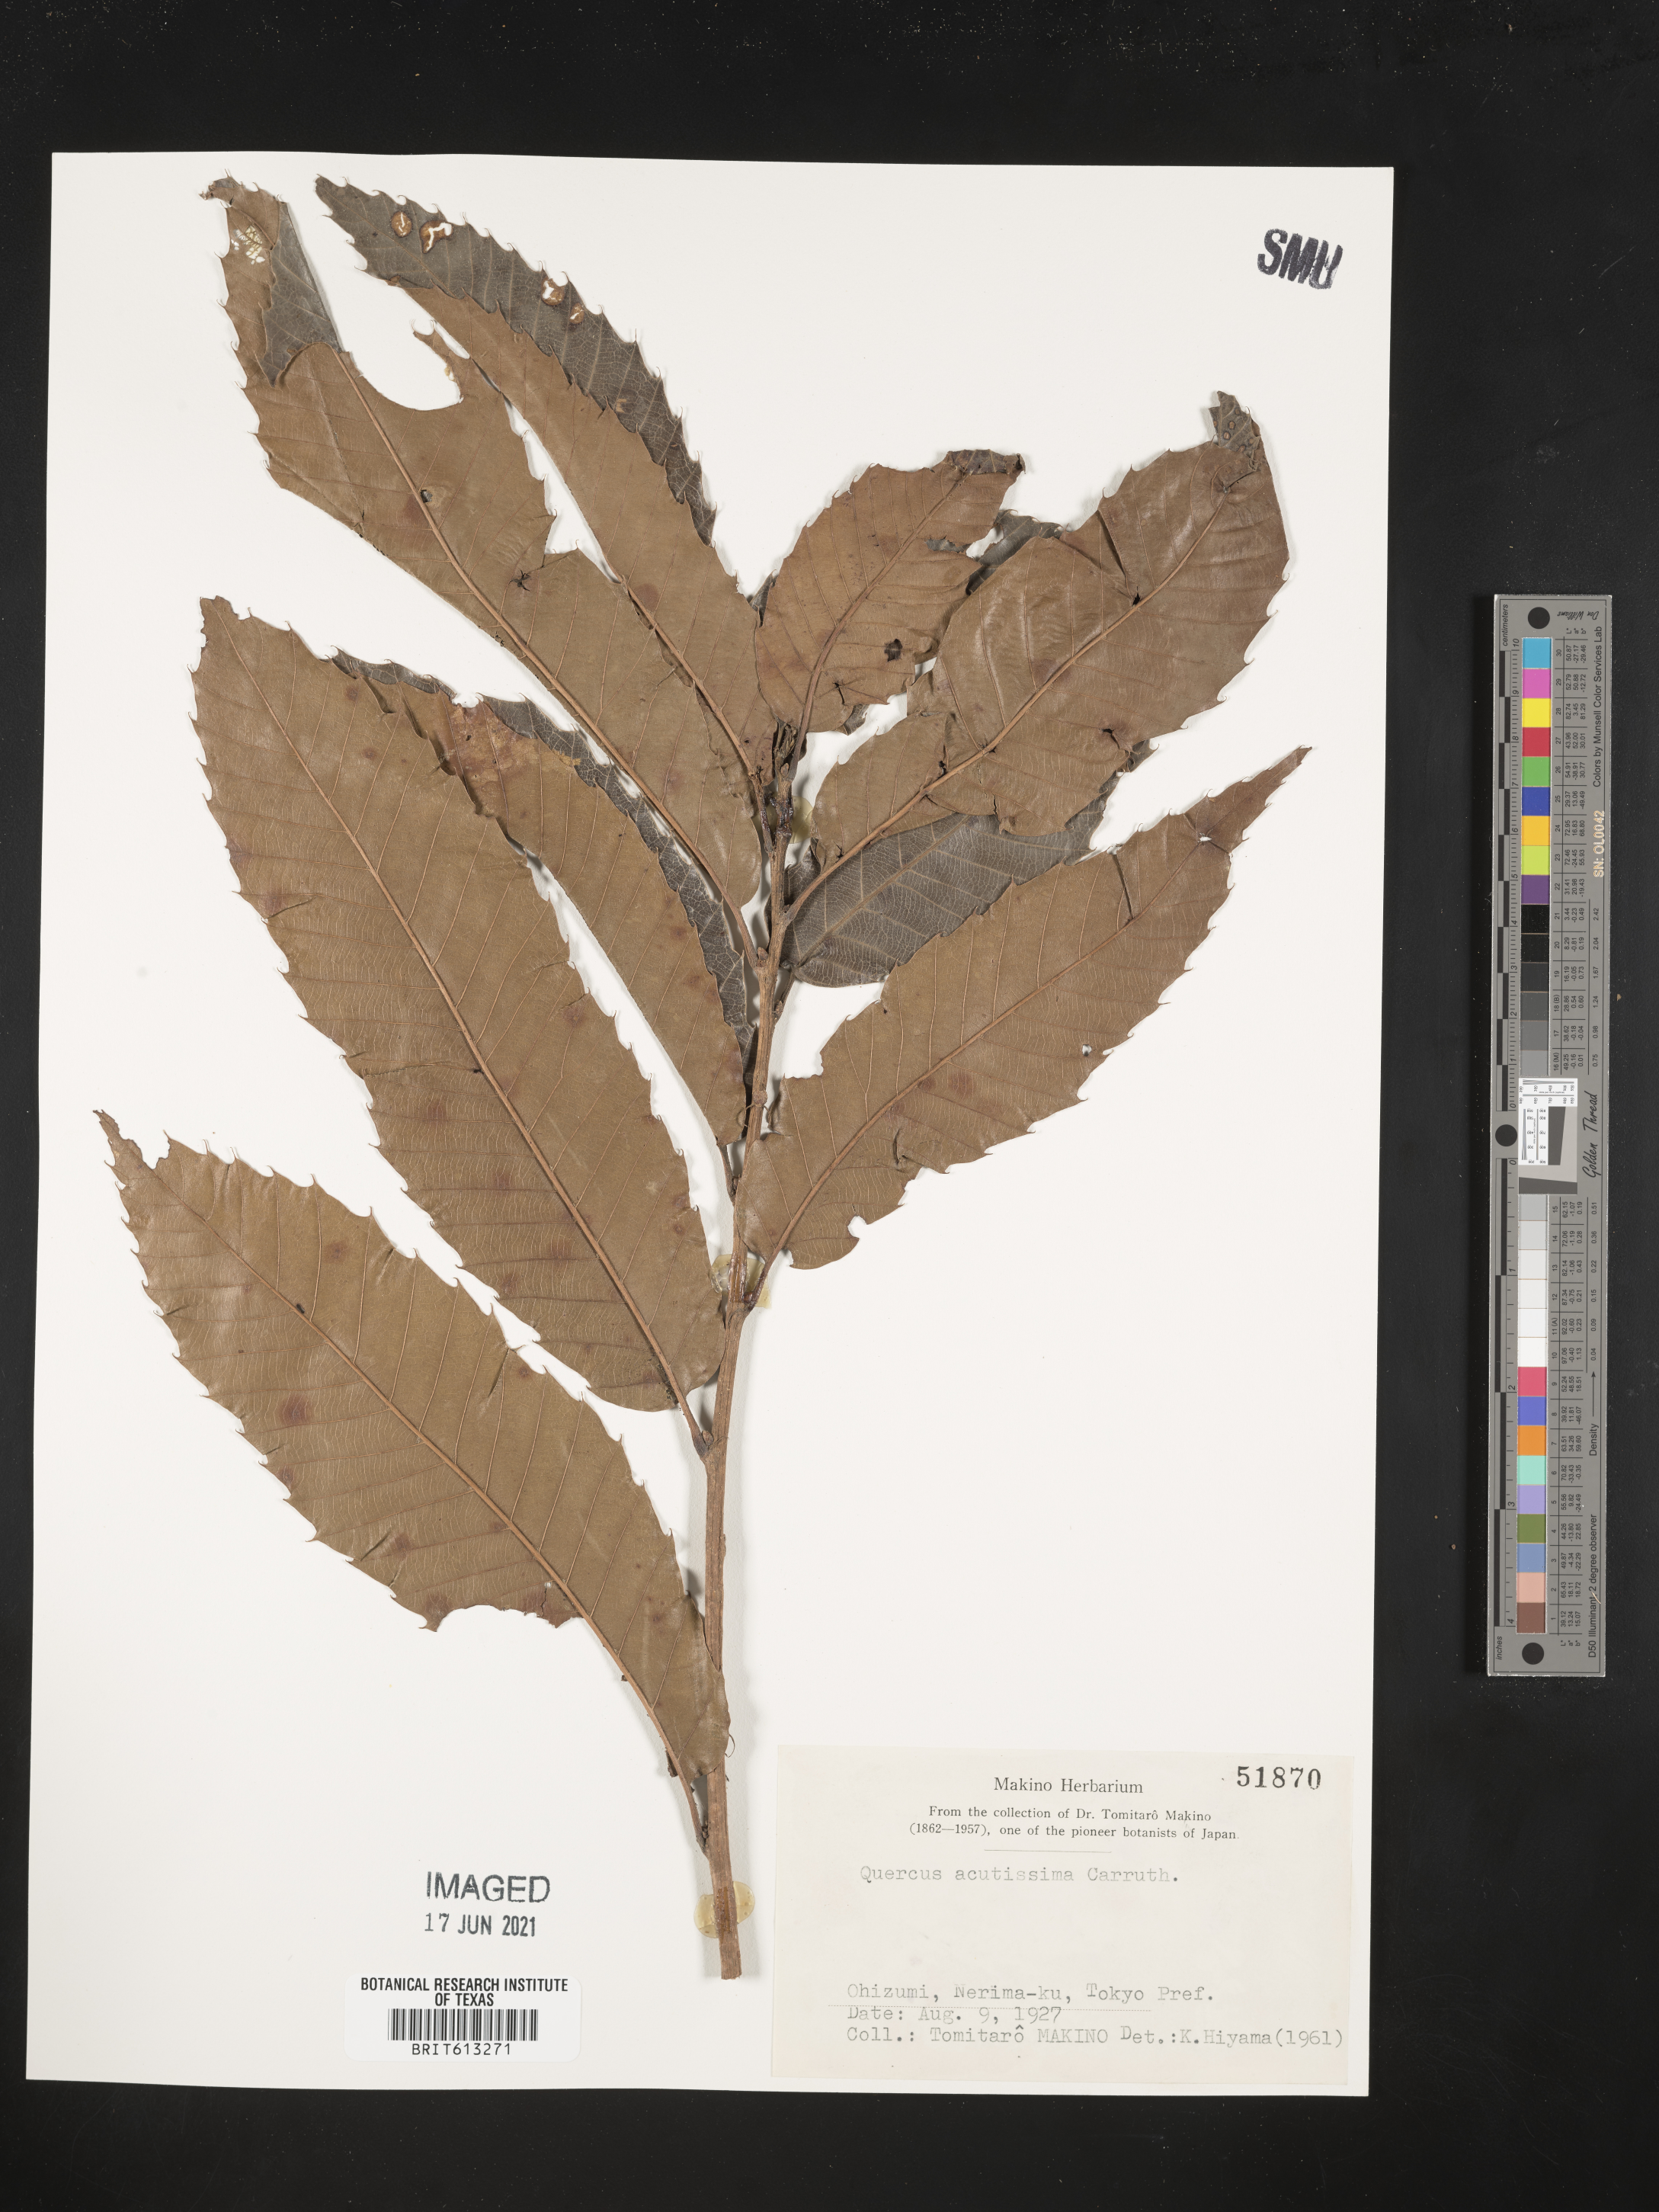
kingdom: Plantae
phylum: Tracheophyta
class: Magnoliopsida
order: Fagales
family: Fagaceae
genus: Quercus
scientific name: Quercus acutissima
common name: Sawtooth oak
